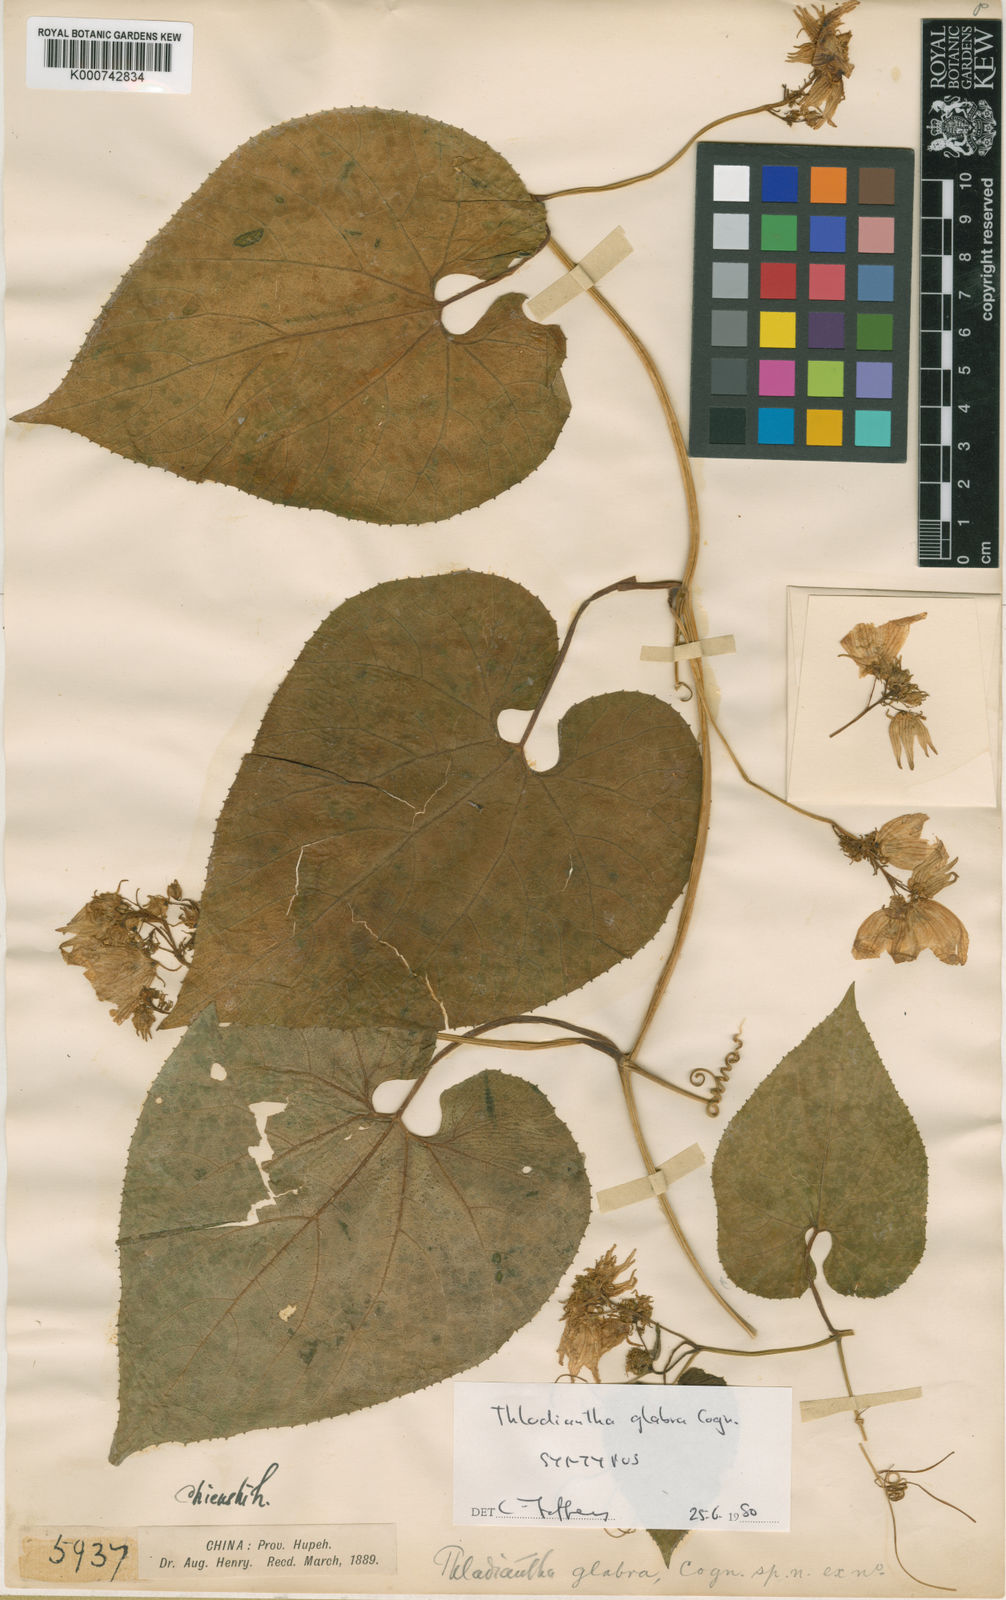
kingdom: Plantae
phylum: Tracheophyta
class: Magnoliopsida
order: Cucurbitales
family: Cucurbitaceae
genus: Thladiantha
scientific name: Thladiantha
